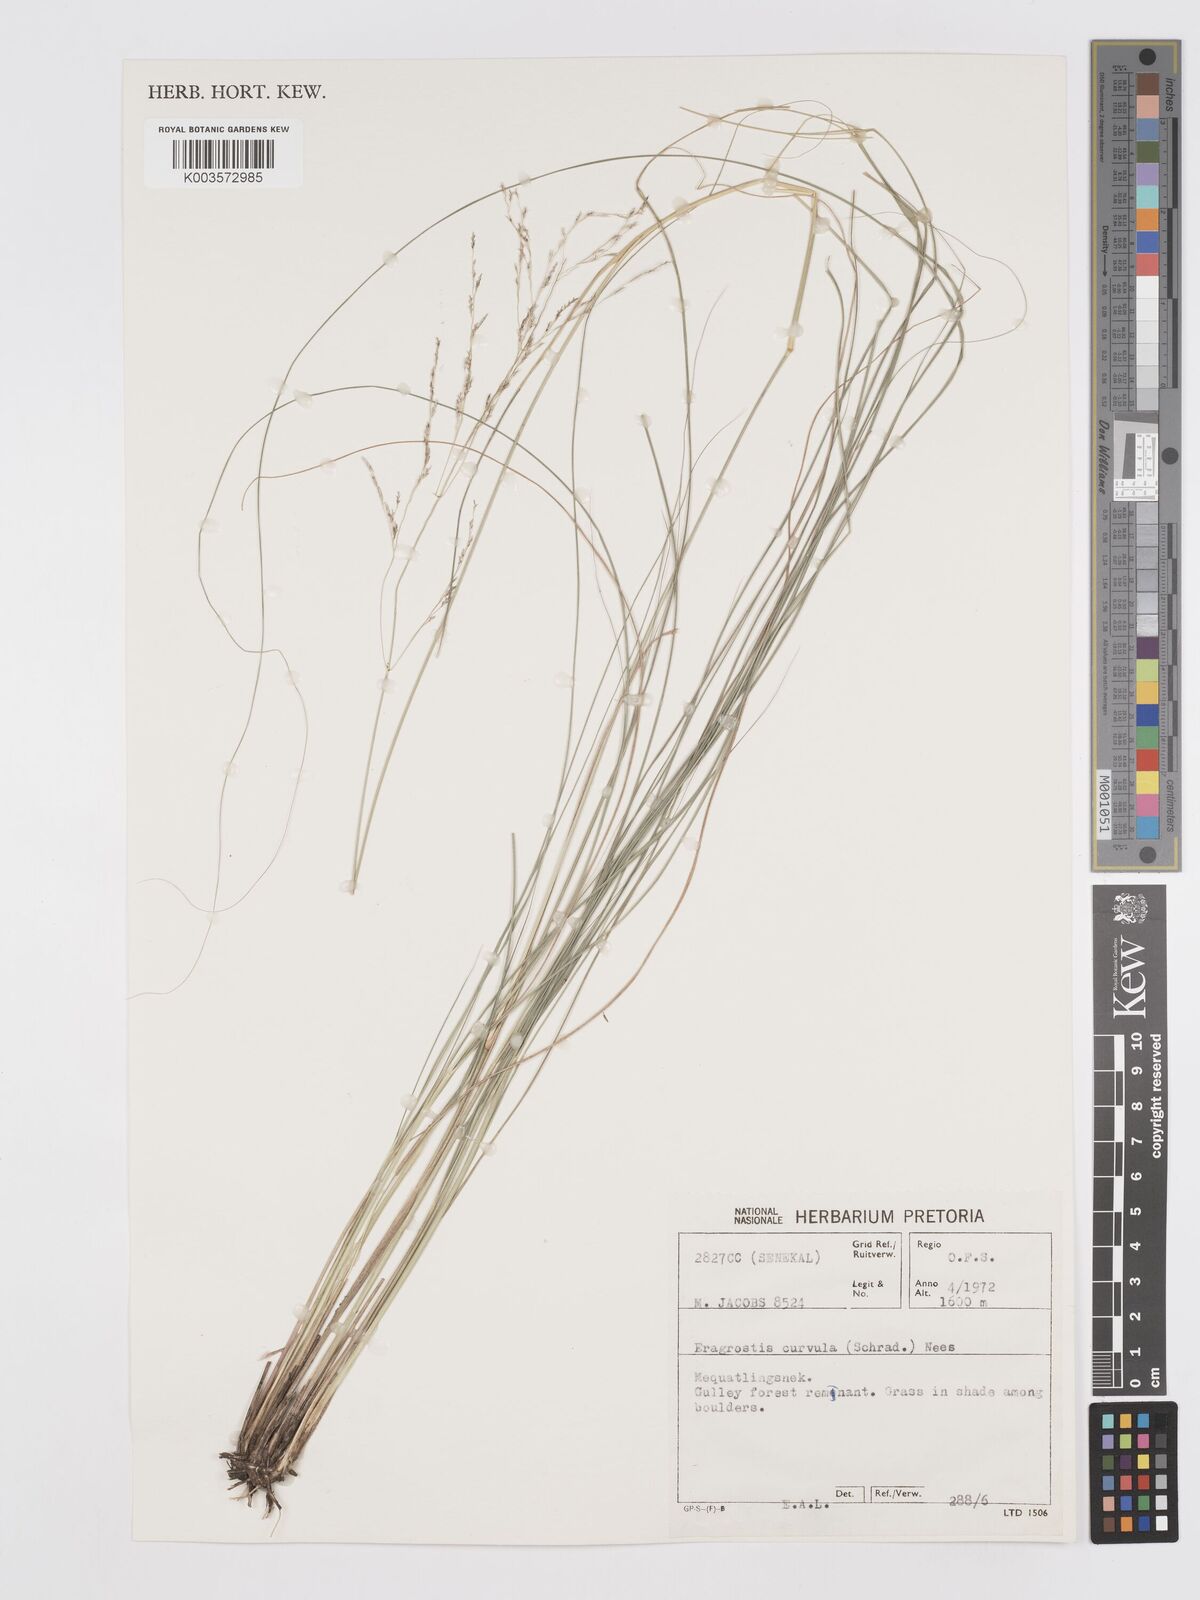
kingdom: Plantae
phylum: Tracheophyta
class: Liliopsida
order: Poales
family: Poaceae
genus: Eragrostis
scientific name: Eragrostis curvula
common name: African love-grass
